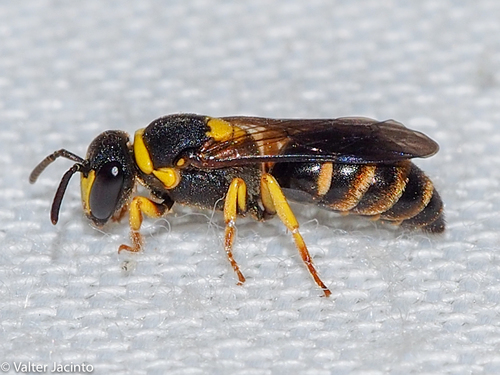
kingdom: Animalia
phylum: Arthropoda
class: Insecta
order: Hymenoptera
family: Colletidae
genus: Hylaeus
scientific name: Hylaeus pictus
